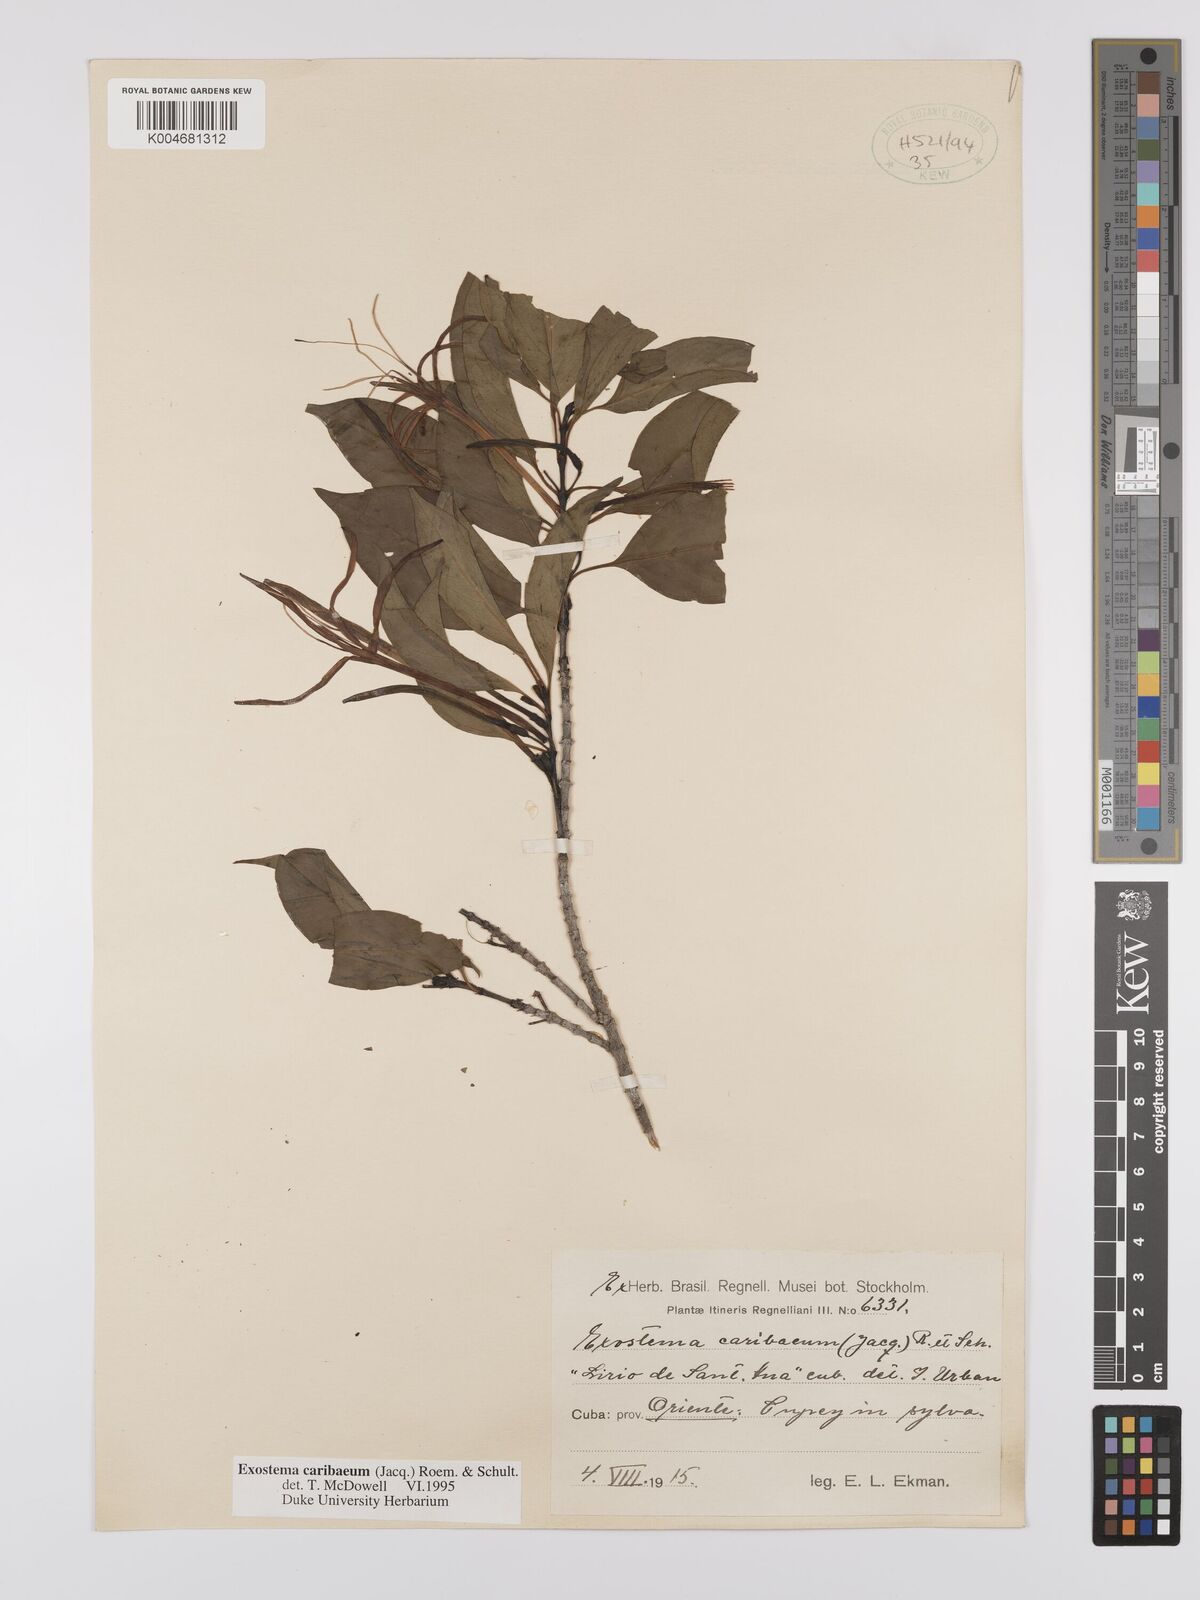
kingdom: Plantae
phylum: Tracheophyta
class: Magnoliopsida
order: Gentianales
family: Rubiaceae
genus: Exostema
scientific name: Exostema caribaeum
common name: Princewood
